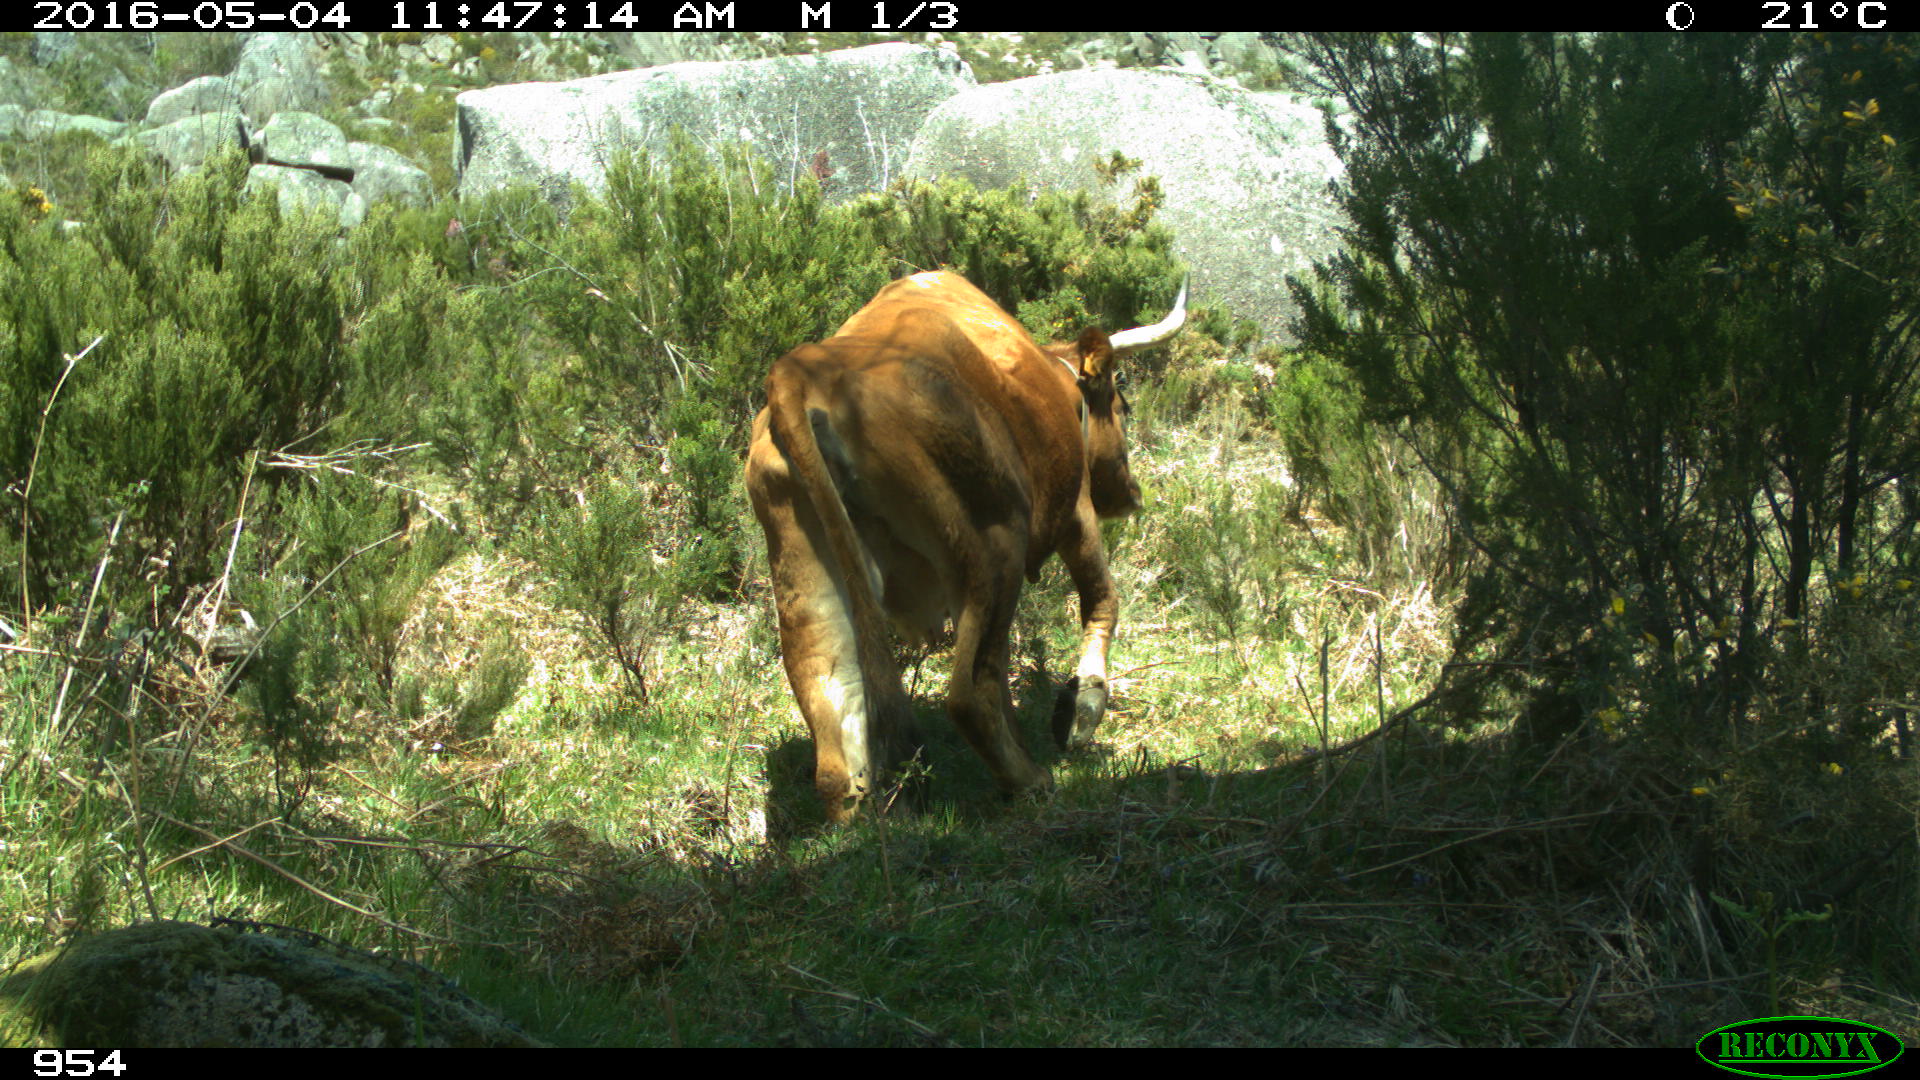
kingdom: Animalia
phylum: Chordata
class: Mammalia
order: Artiodactyla
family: Bovidae
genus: Bos
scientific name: Bos taurus
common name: Domesticated cattle
